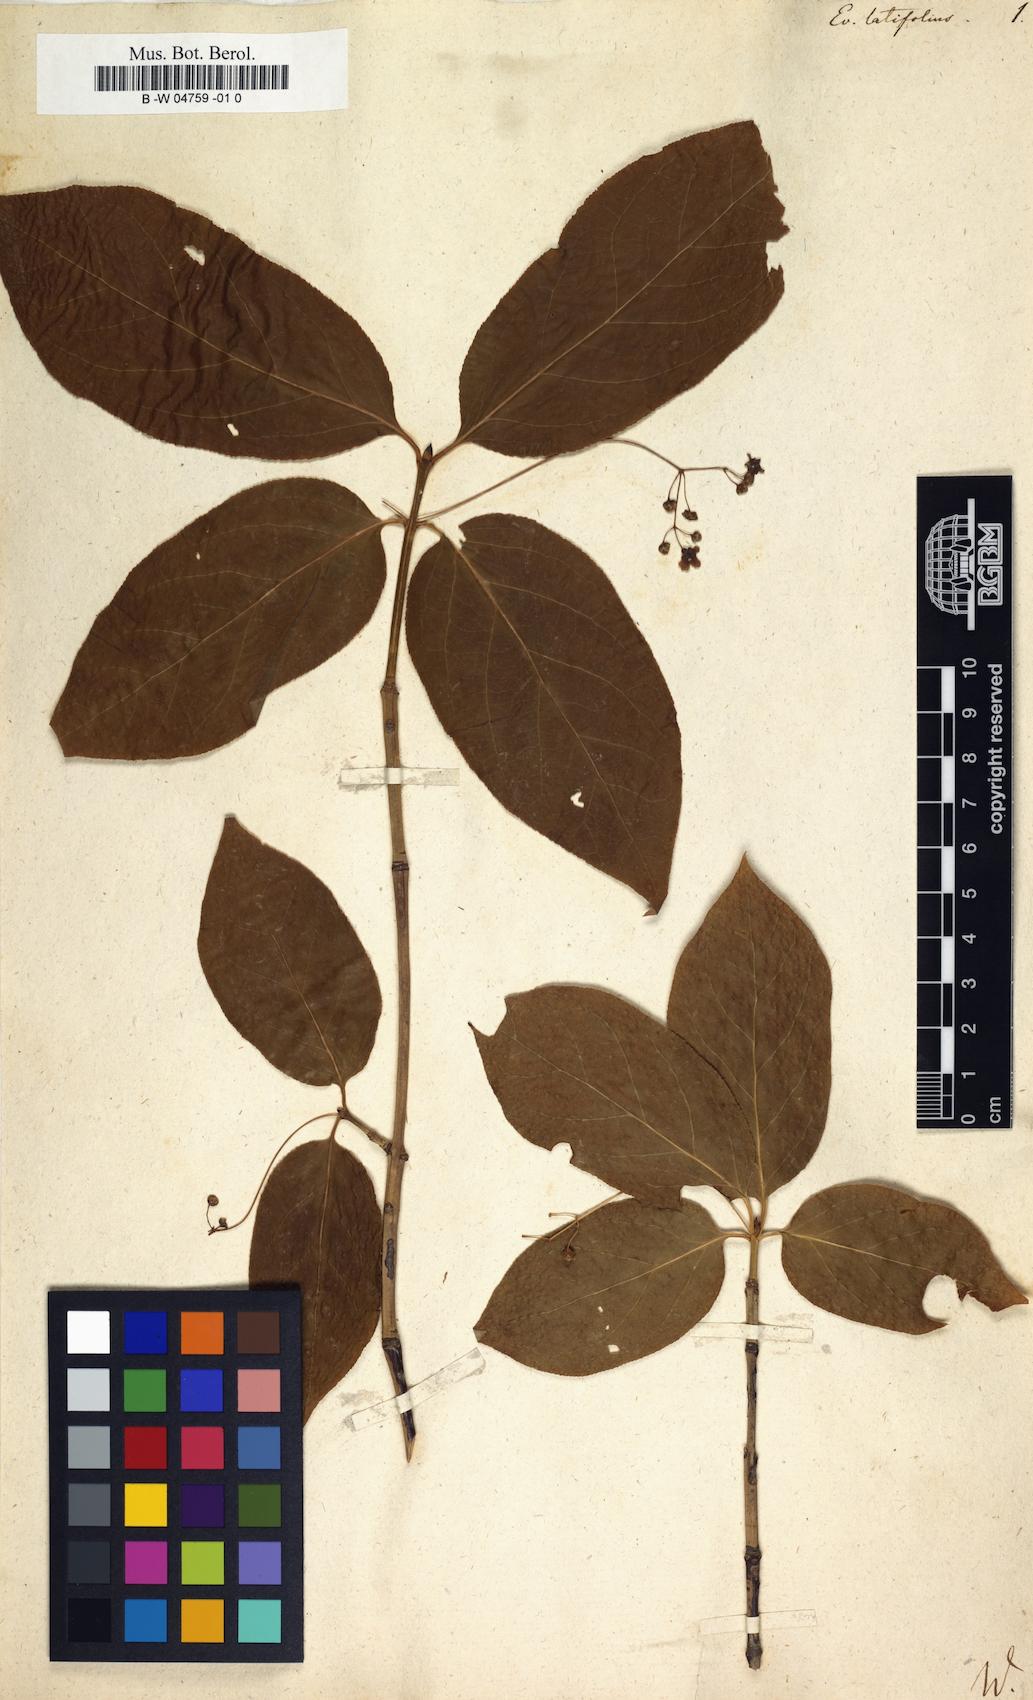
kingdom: Plantae
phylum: Tracheophyta
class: Magnoliopsida
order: Celastrales
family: Celastraceae
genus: Euonymus
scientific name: Euonymus latifolius
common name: Large-leaved spindle
